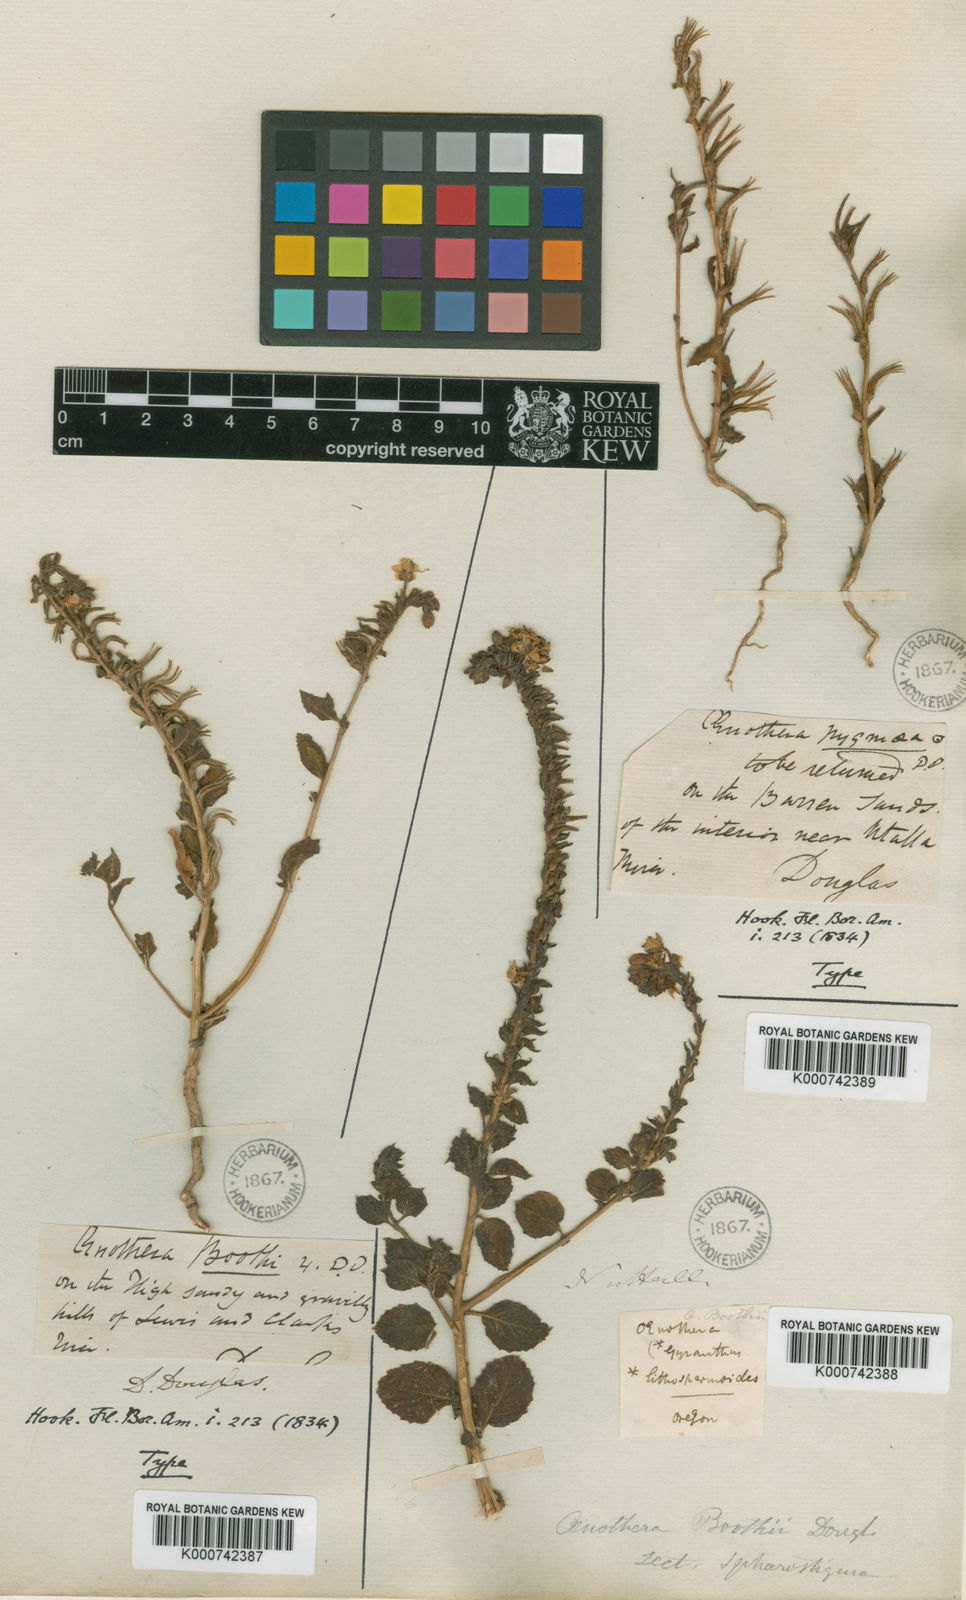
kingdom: Plantae
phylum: Tracheophyta
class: Magnoliopsida
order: Myrtales
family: Onagraceae
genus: Eremothera
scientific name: Eremothera pygmaea
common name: Dwarf suncup
